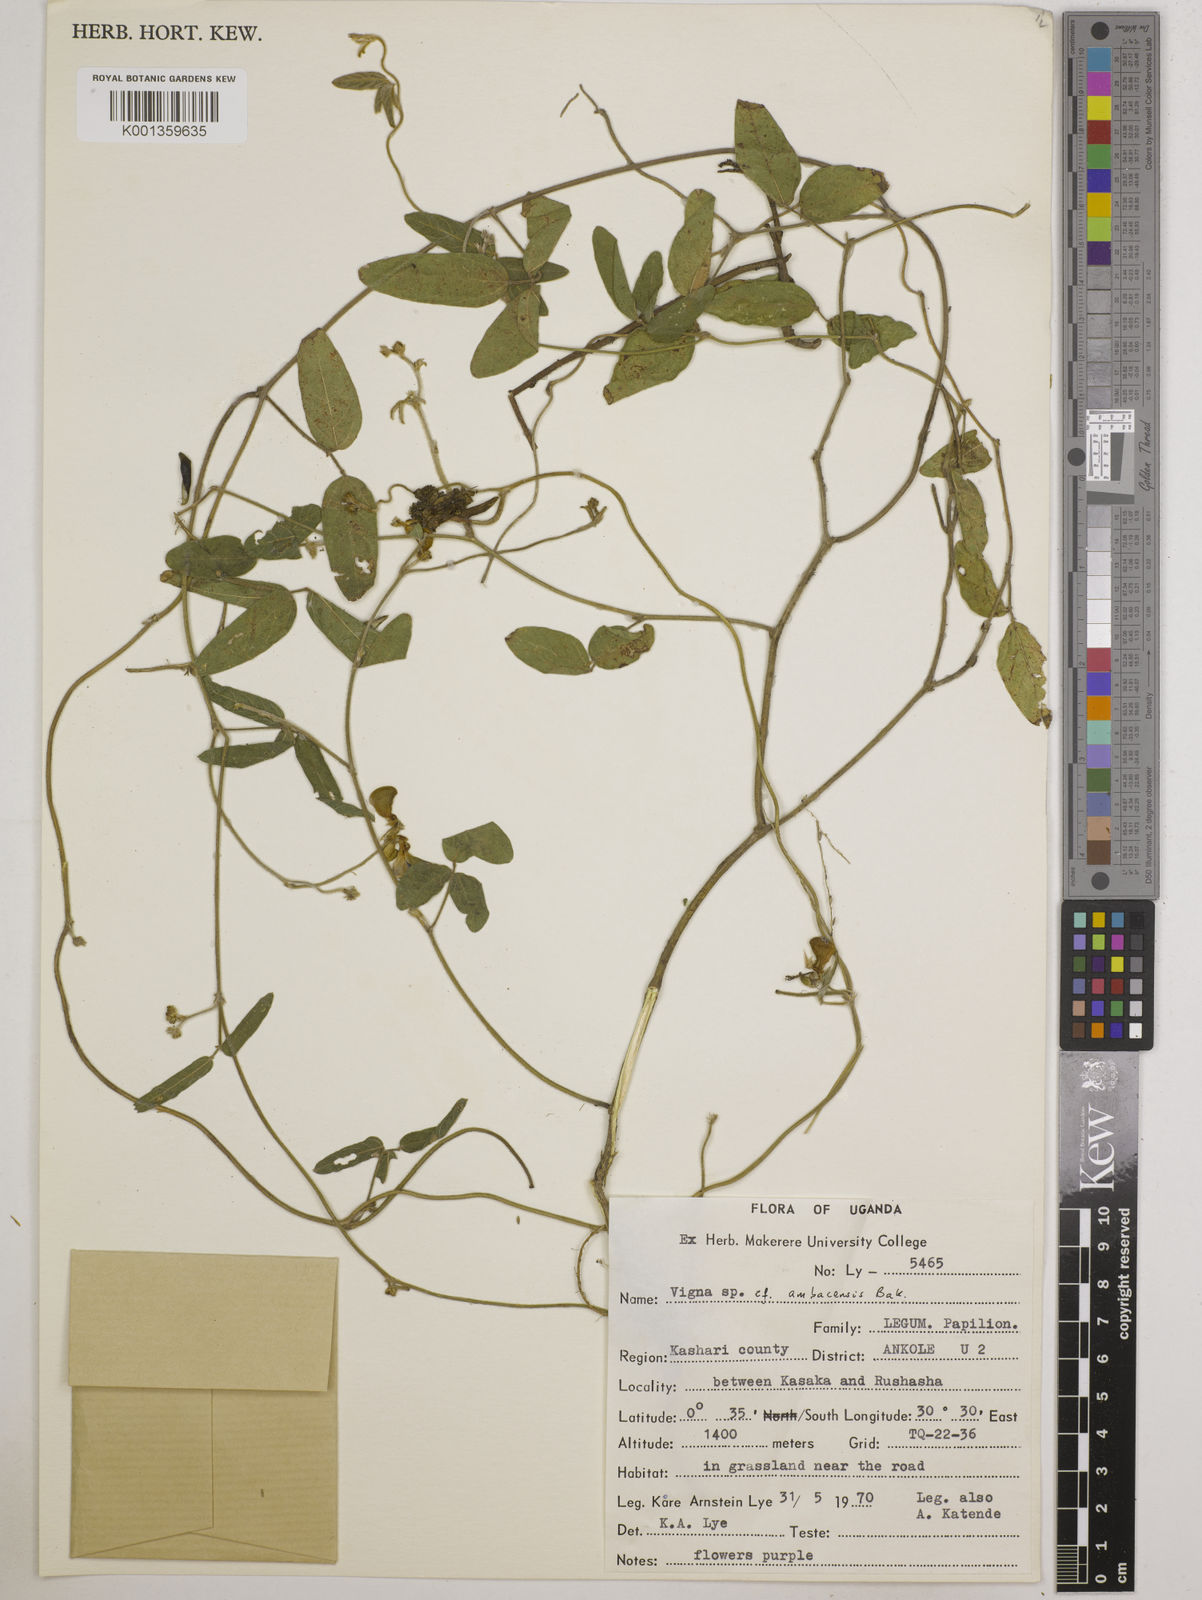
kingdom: Plantae
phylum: Tracheophyta
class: Magnoliopsida
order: Fabales
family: Fabaceae
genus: Vigna
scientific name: Vigna ambacensis
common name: Tsarkiyan zomo
